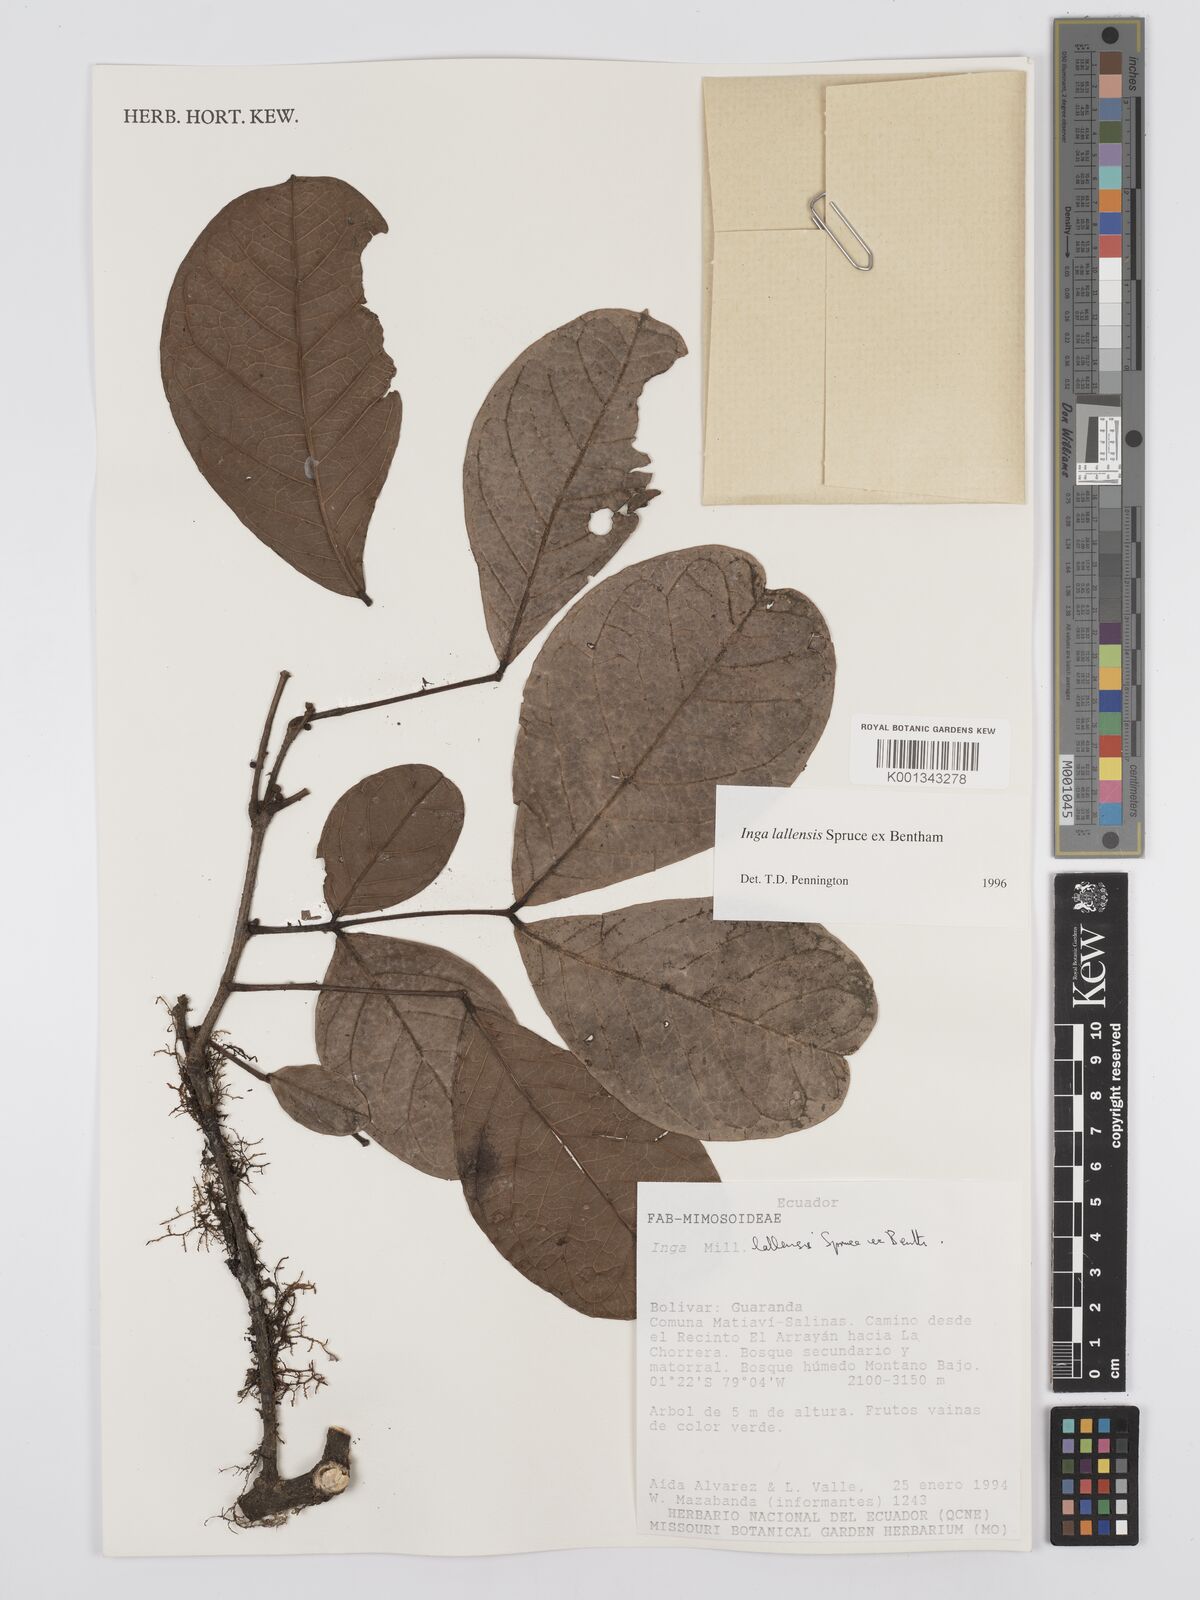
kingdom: Plantae
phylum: Tracheophyta
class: Magnoliopsida
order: Fabales
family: Fabaceae
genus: Inga
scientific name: Inga lallensis
